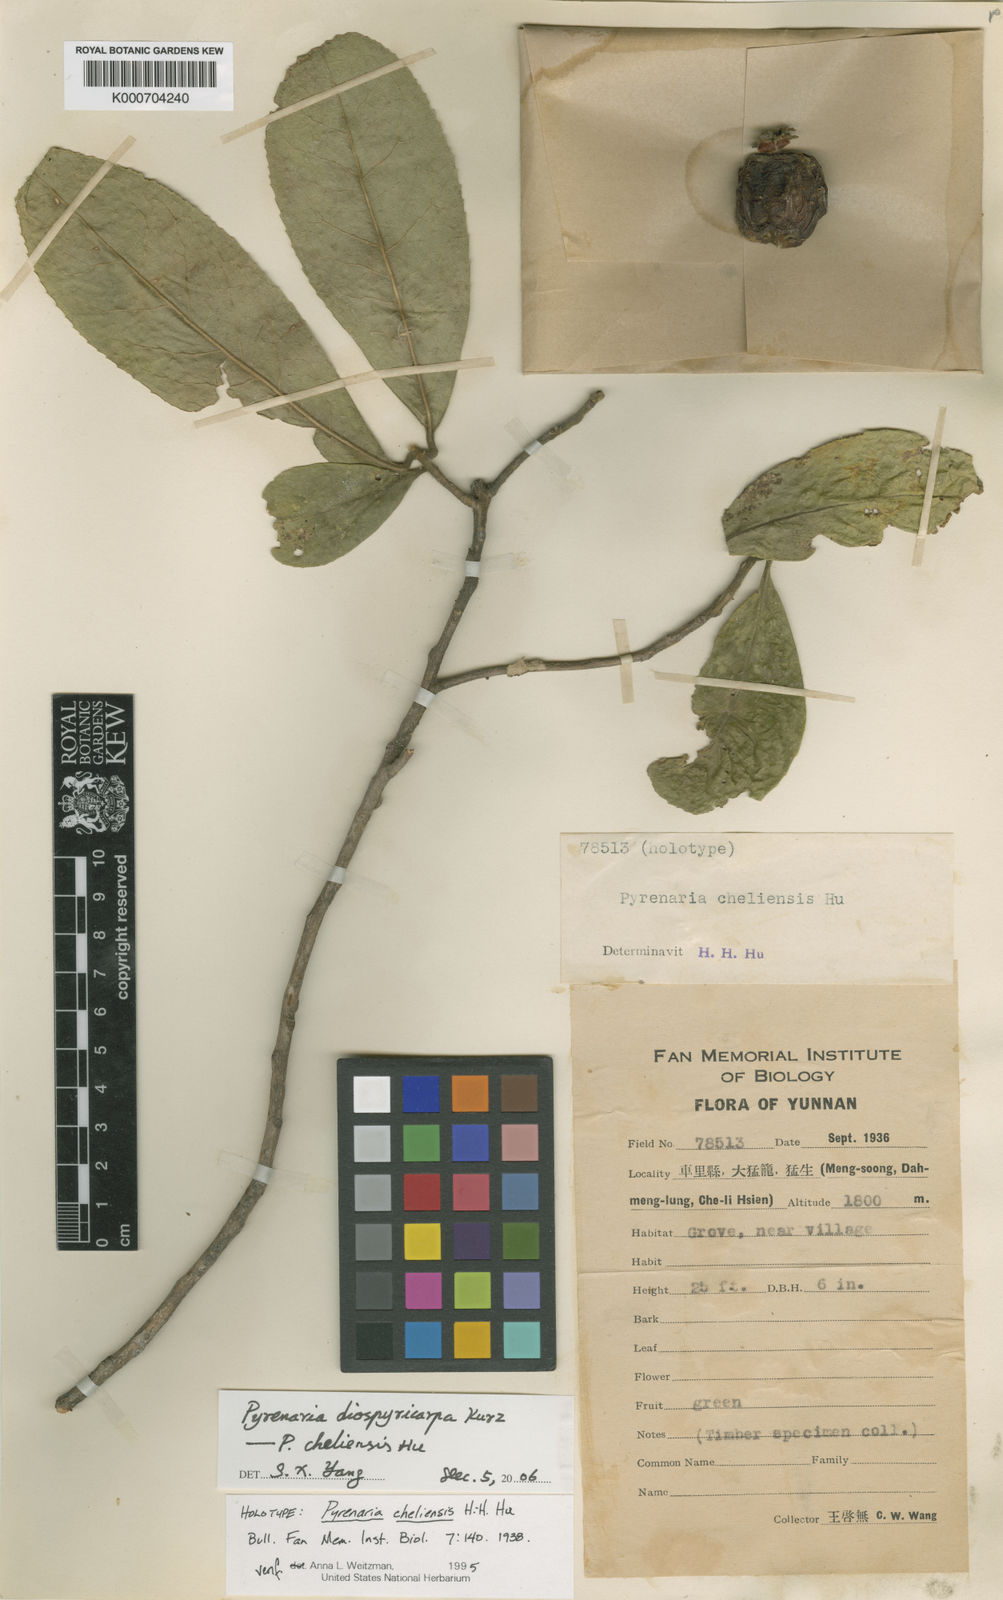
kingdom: Plantae
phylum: Tracheophyta
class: Magnoliopsida
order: Ericales
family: Theaceae
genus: Pyrenaria
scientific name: Pyrenaria diospyricarpa
